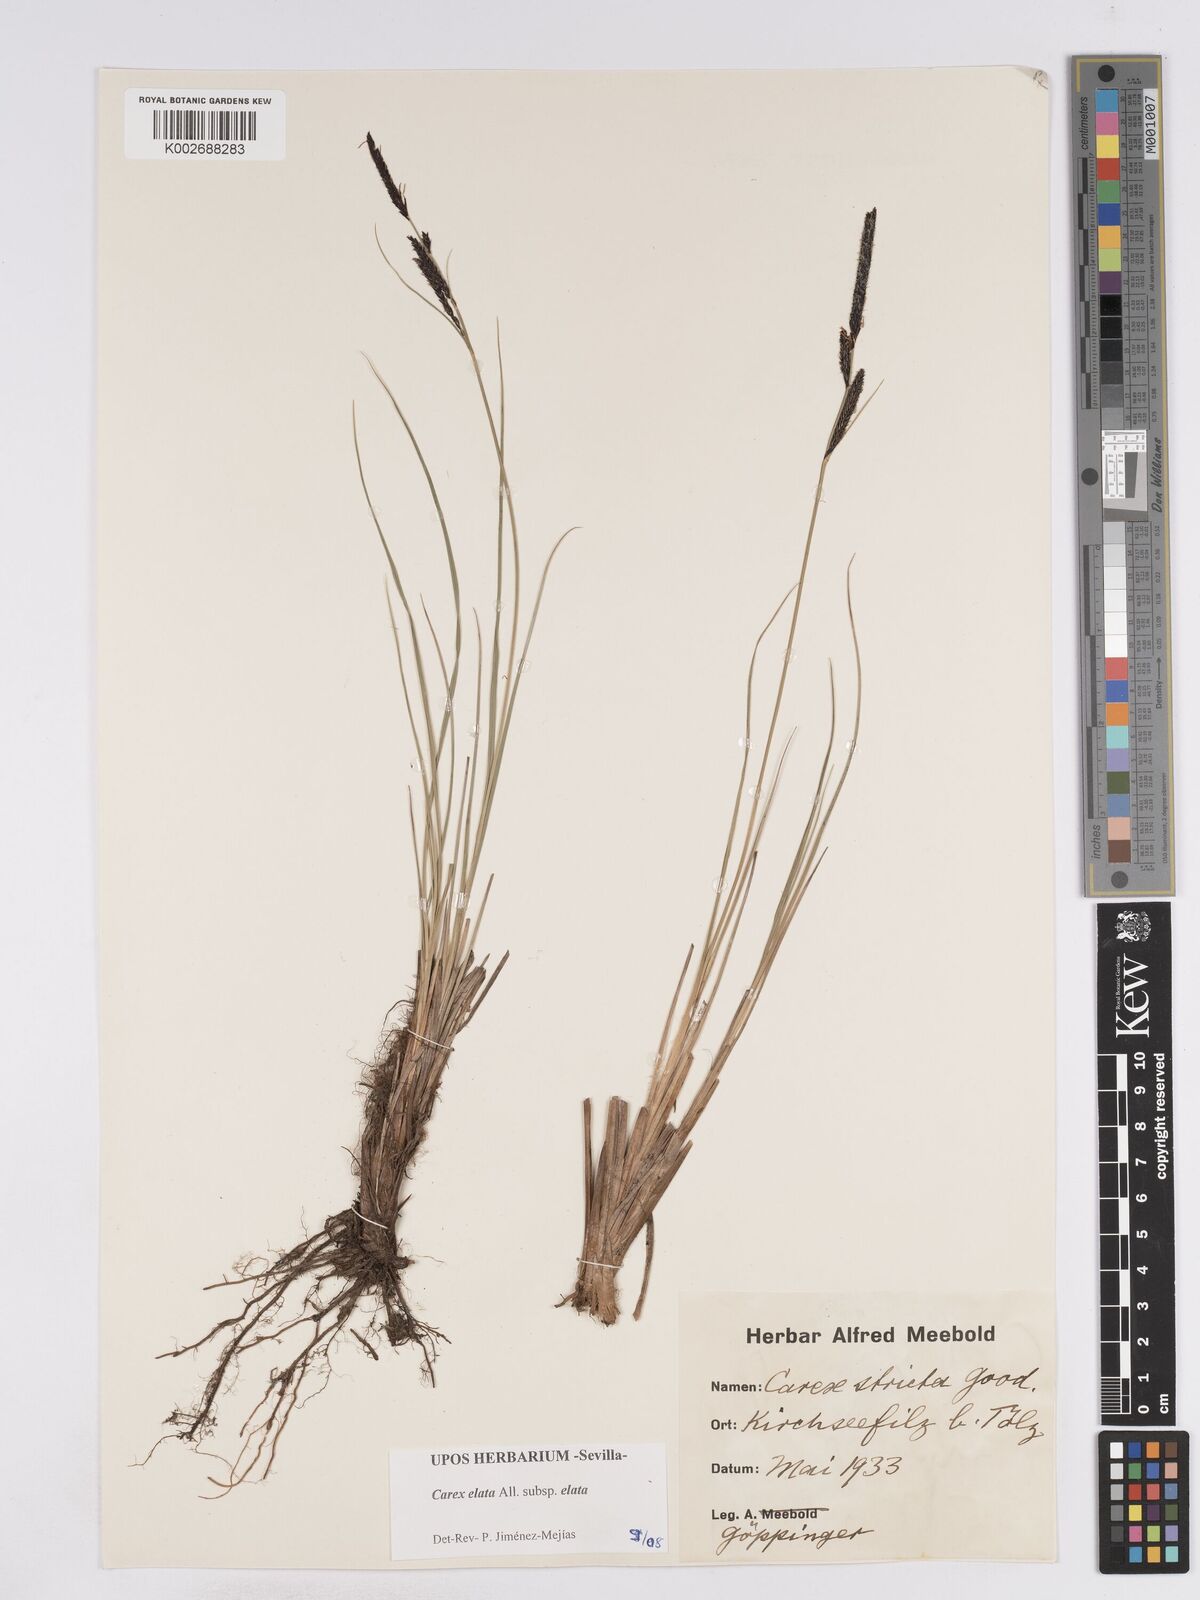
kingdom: Plantae
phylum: Tracheophyta
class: Liliopsida
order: Poales
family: Cyperaceae
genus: Carex
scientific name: Carex elata
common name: Tufted sedge
